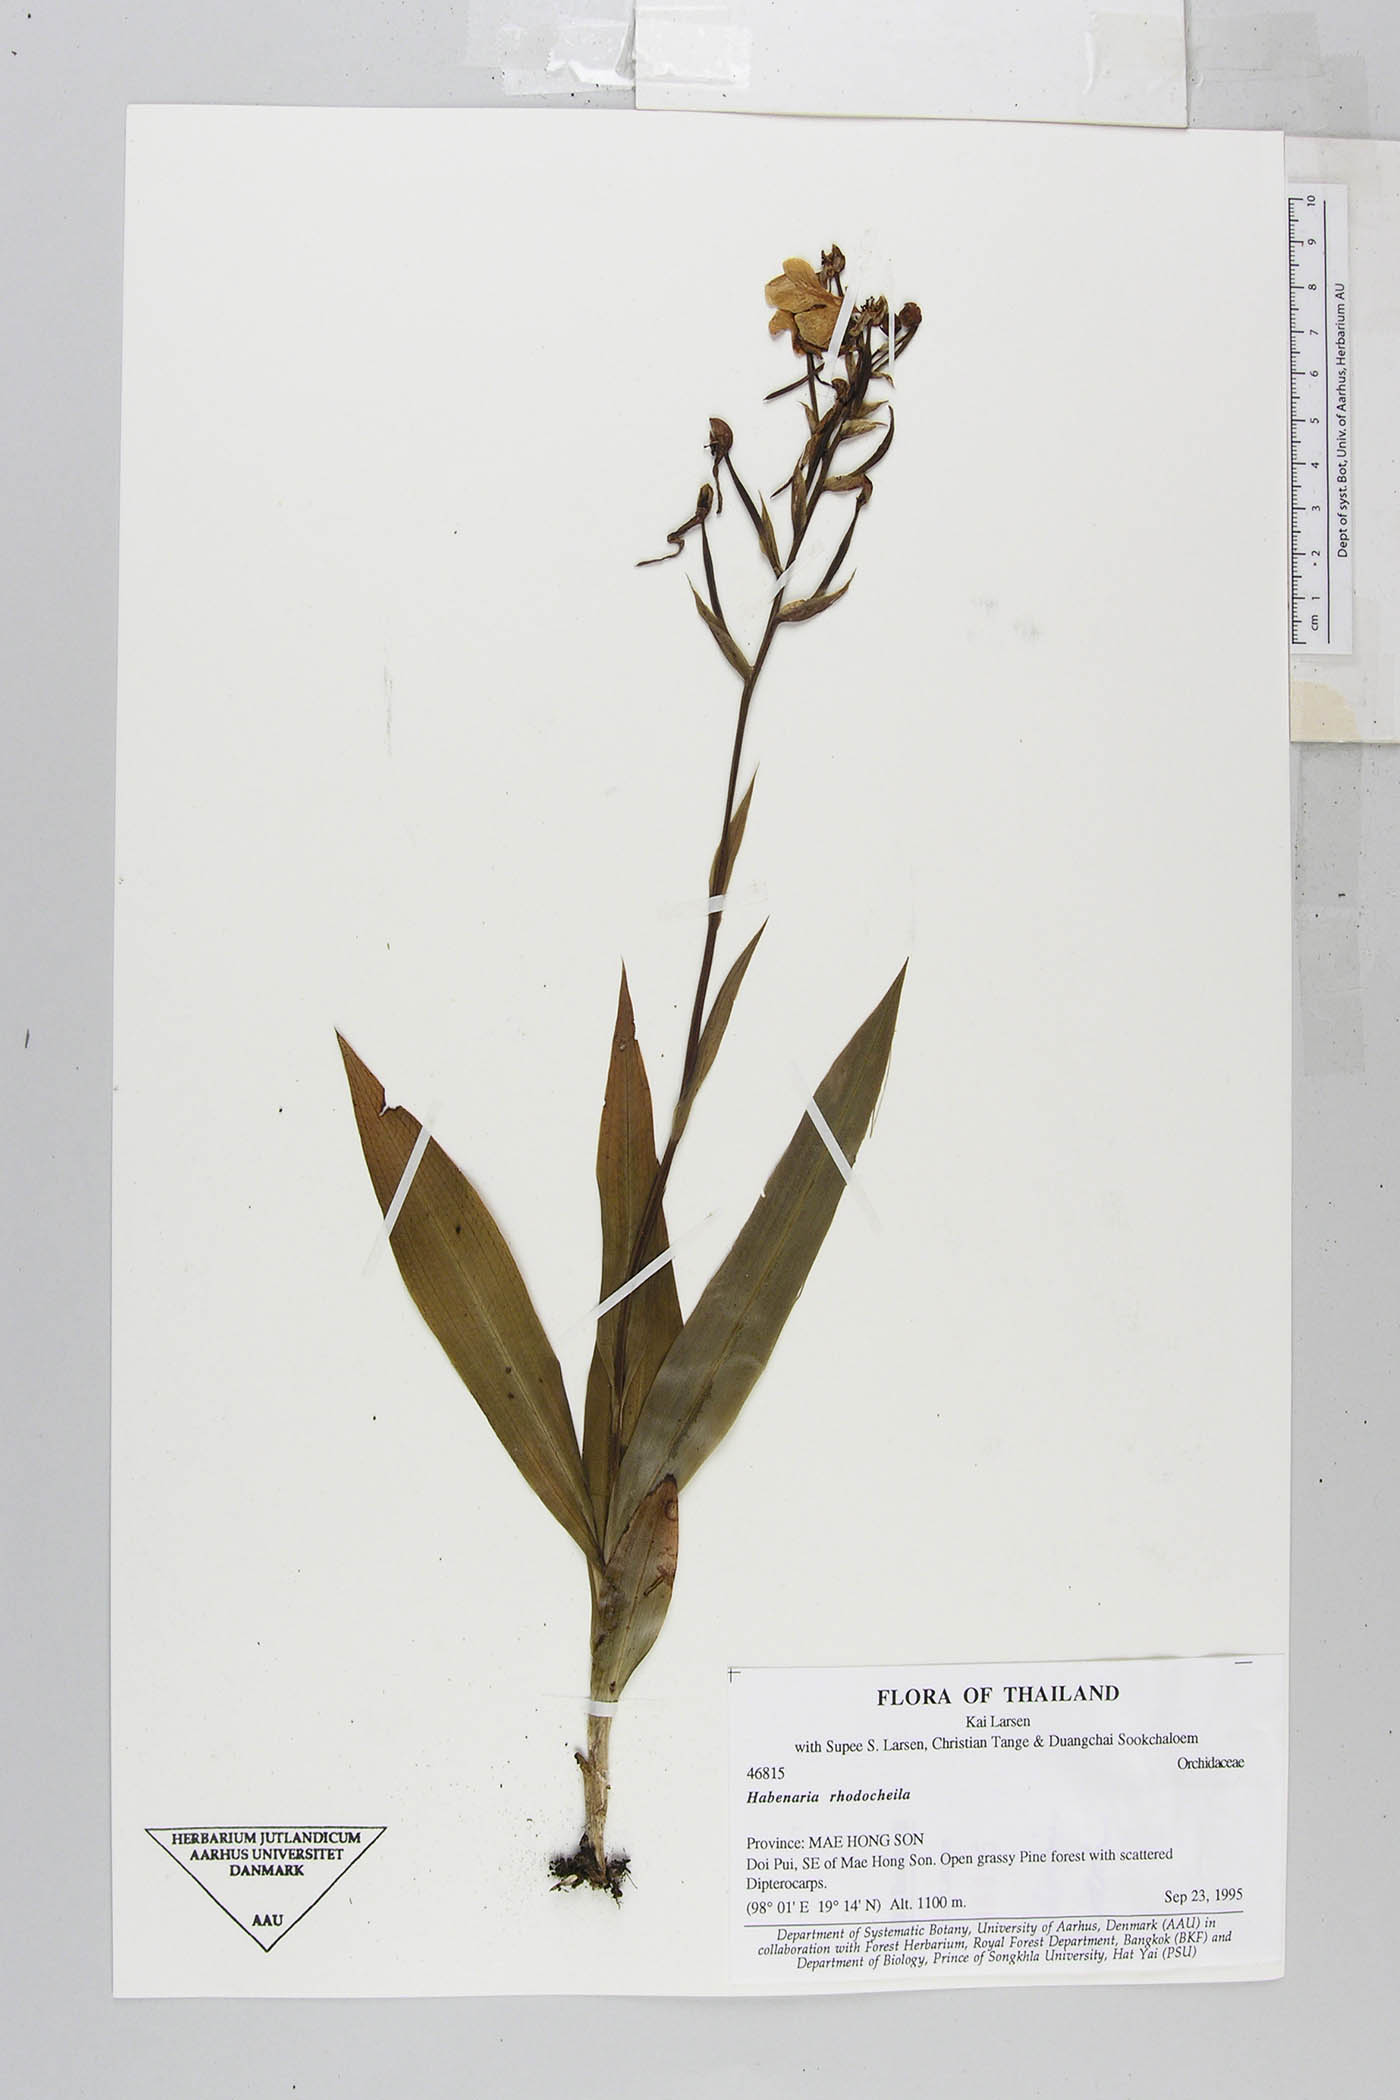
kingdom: Plantae
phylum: Tracheophyta
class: Liliopsida
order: Asparagales
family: Orchidaceae
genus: Habenaria
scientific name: Habenaria rhodocheila
